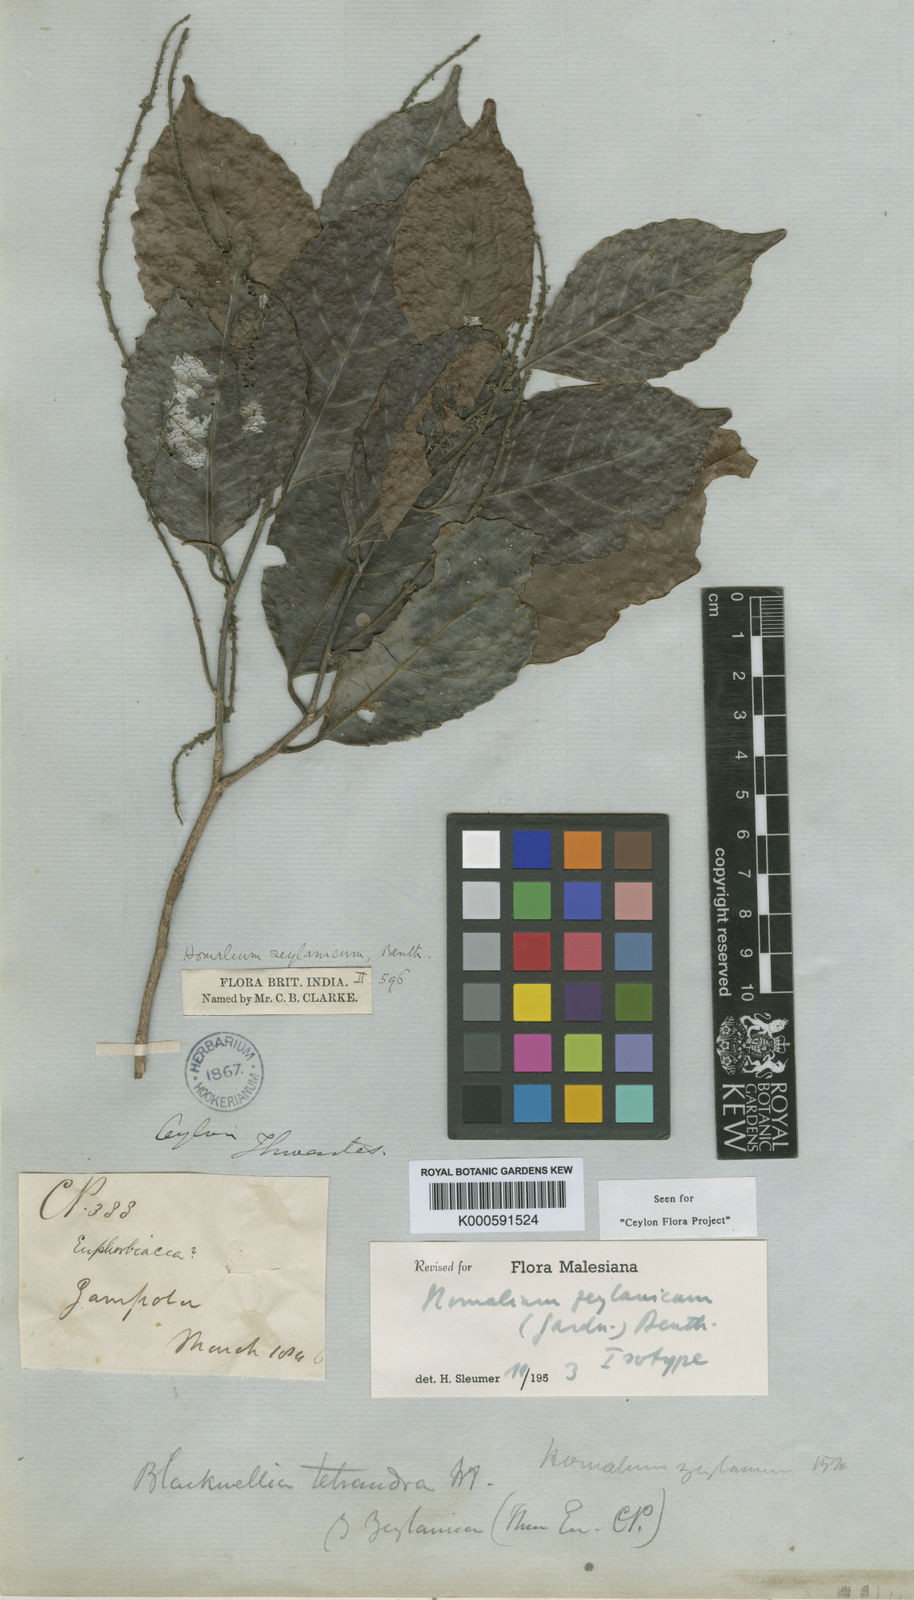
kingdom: Plantae
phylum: Tracheophyta
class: Magnoliopsida
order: Malpighiales
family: Salicaceae
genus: Homalium
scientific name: Homalium ceylanicum
